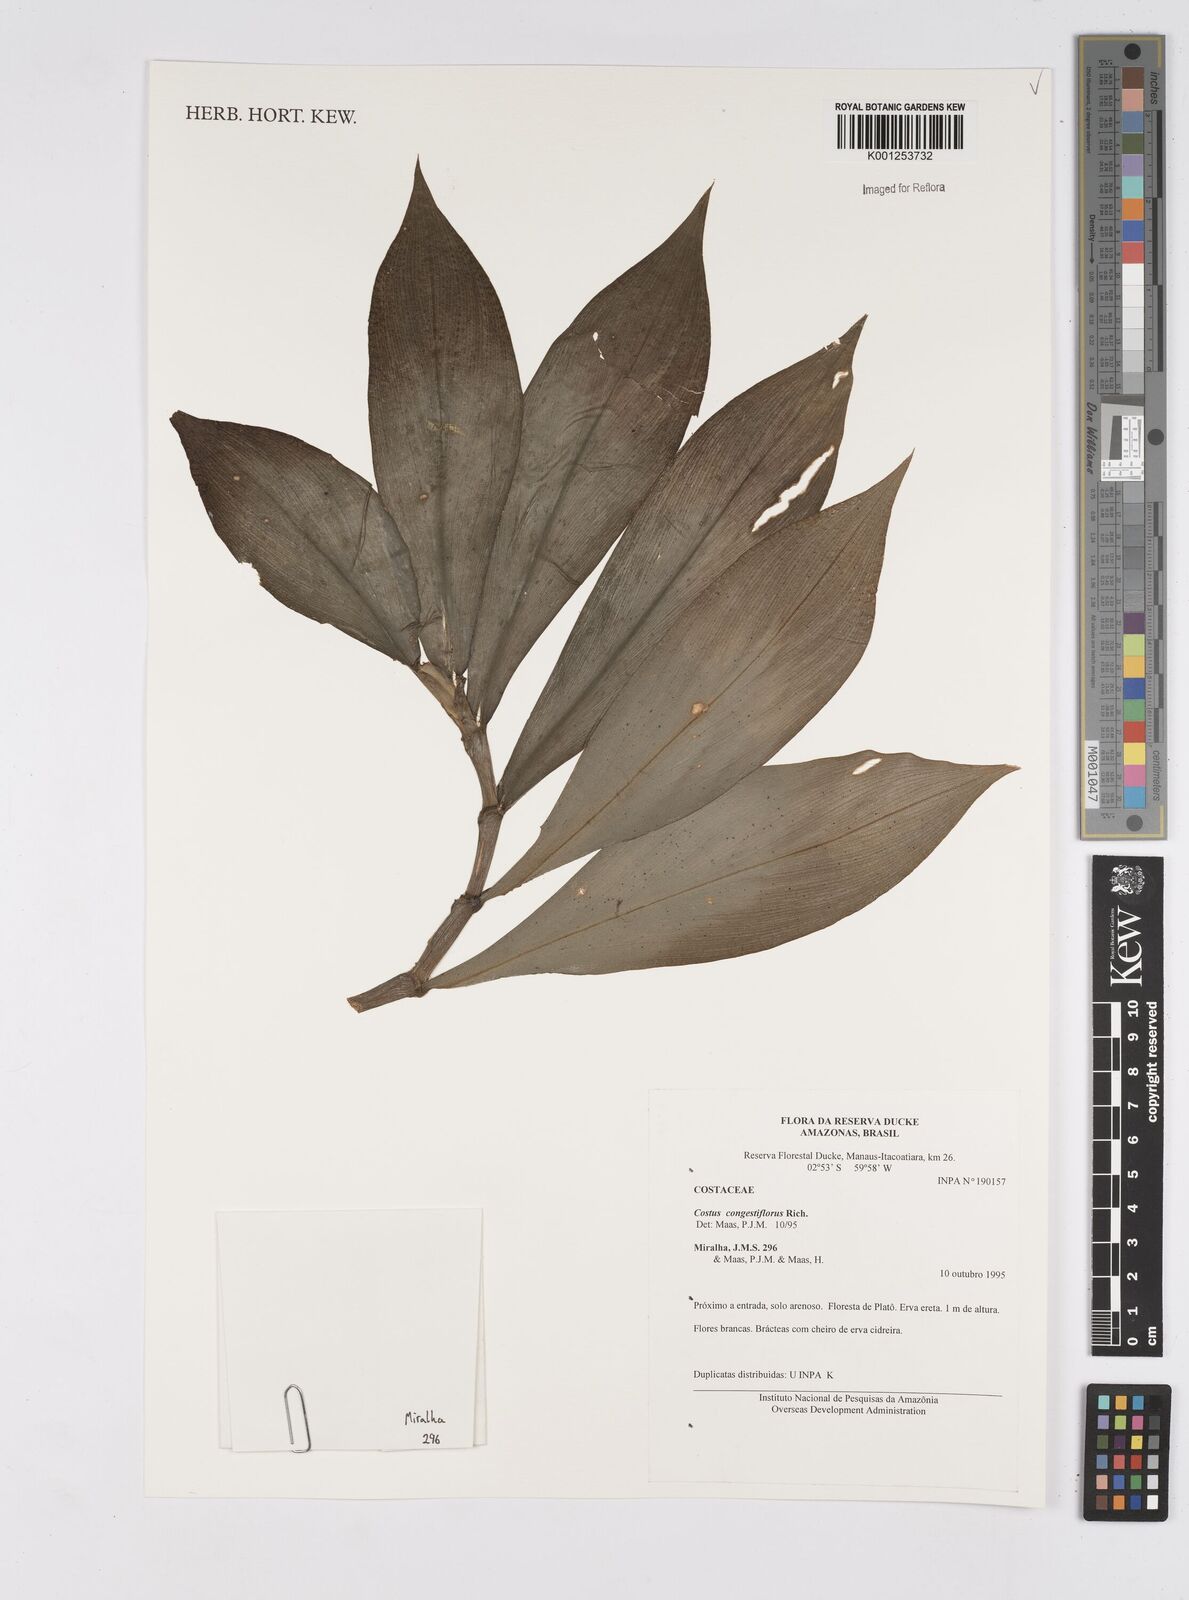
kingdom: Plantae
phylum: Tracheophyta
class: Liliopsida
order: Zingiberales
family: Costaceae
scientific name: Costaceae
